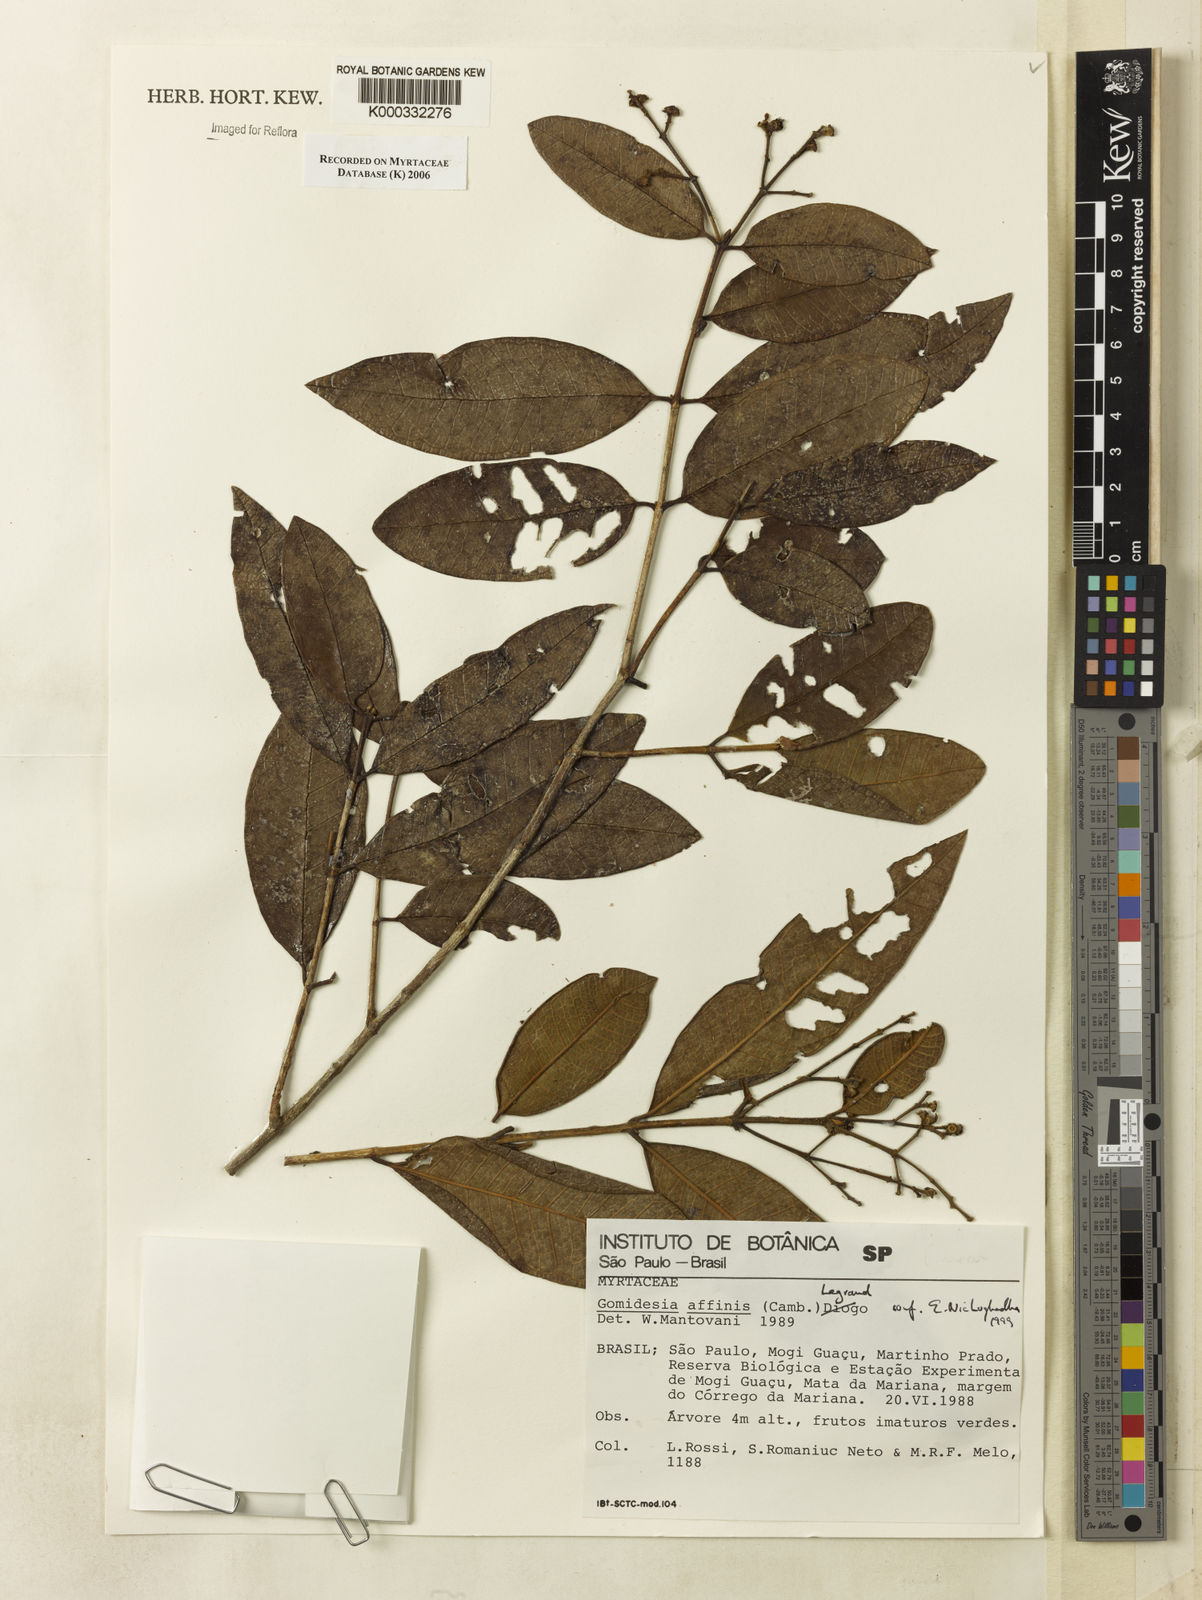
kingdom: Plantae
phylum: Tracheophyta
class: Magnoliopsida
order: Myrtales
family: Myrtaceae
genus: Myrcia
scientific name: Myrcia hebepetala
